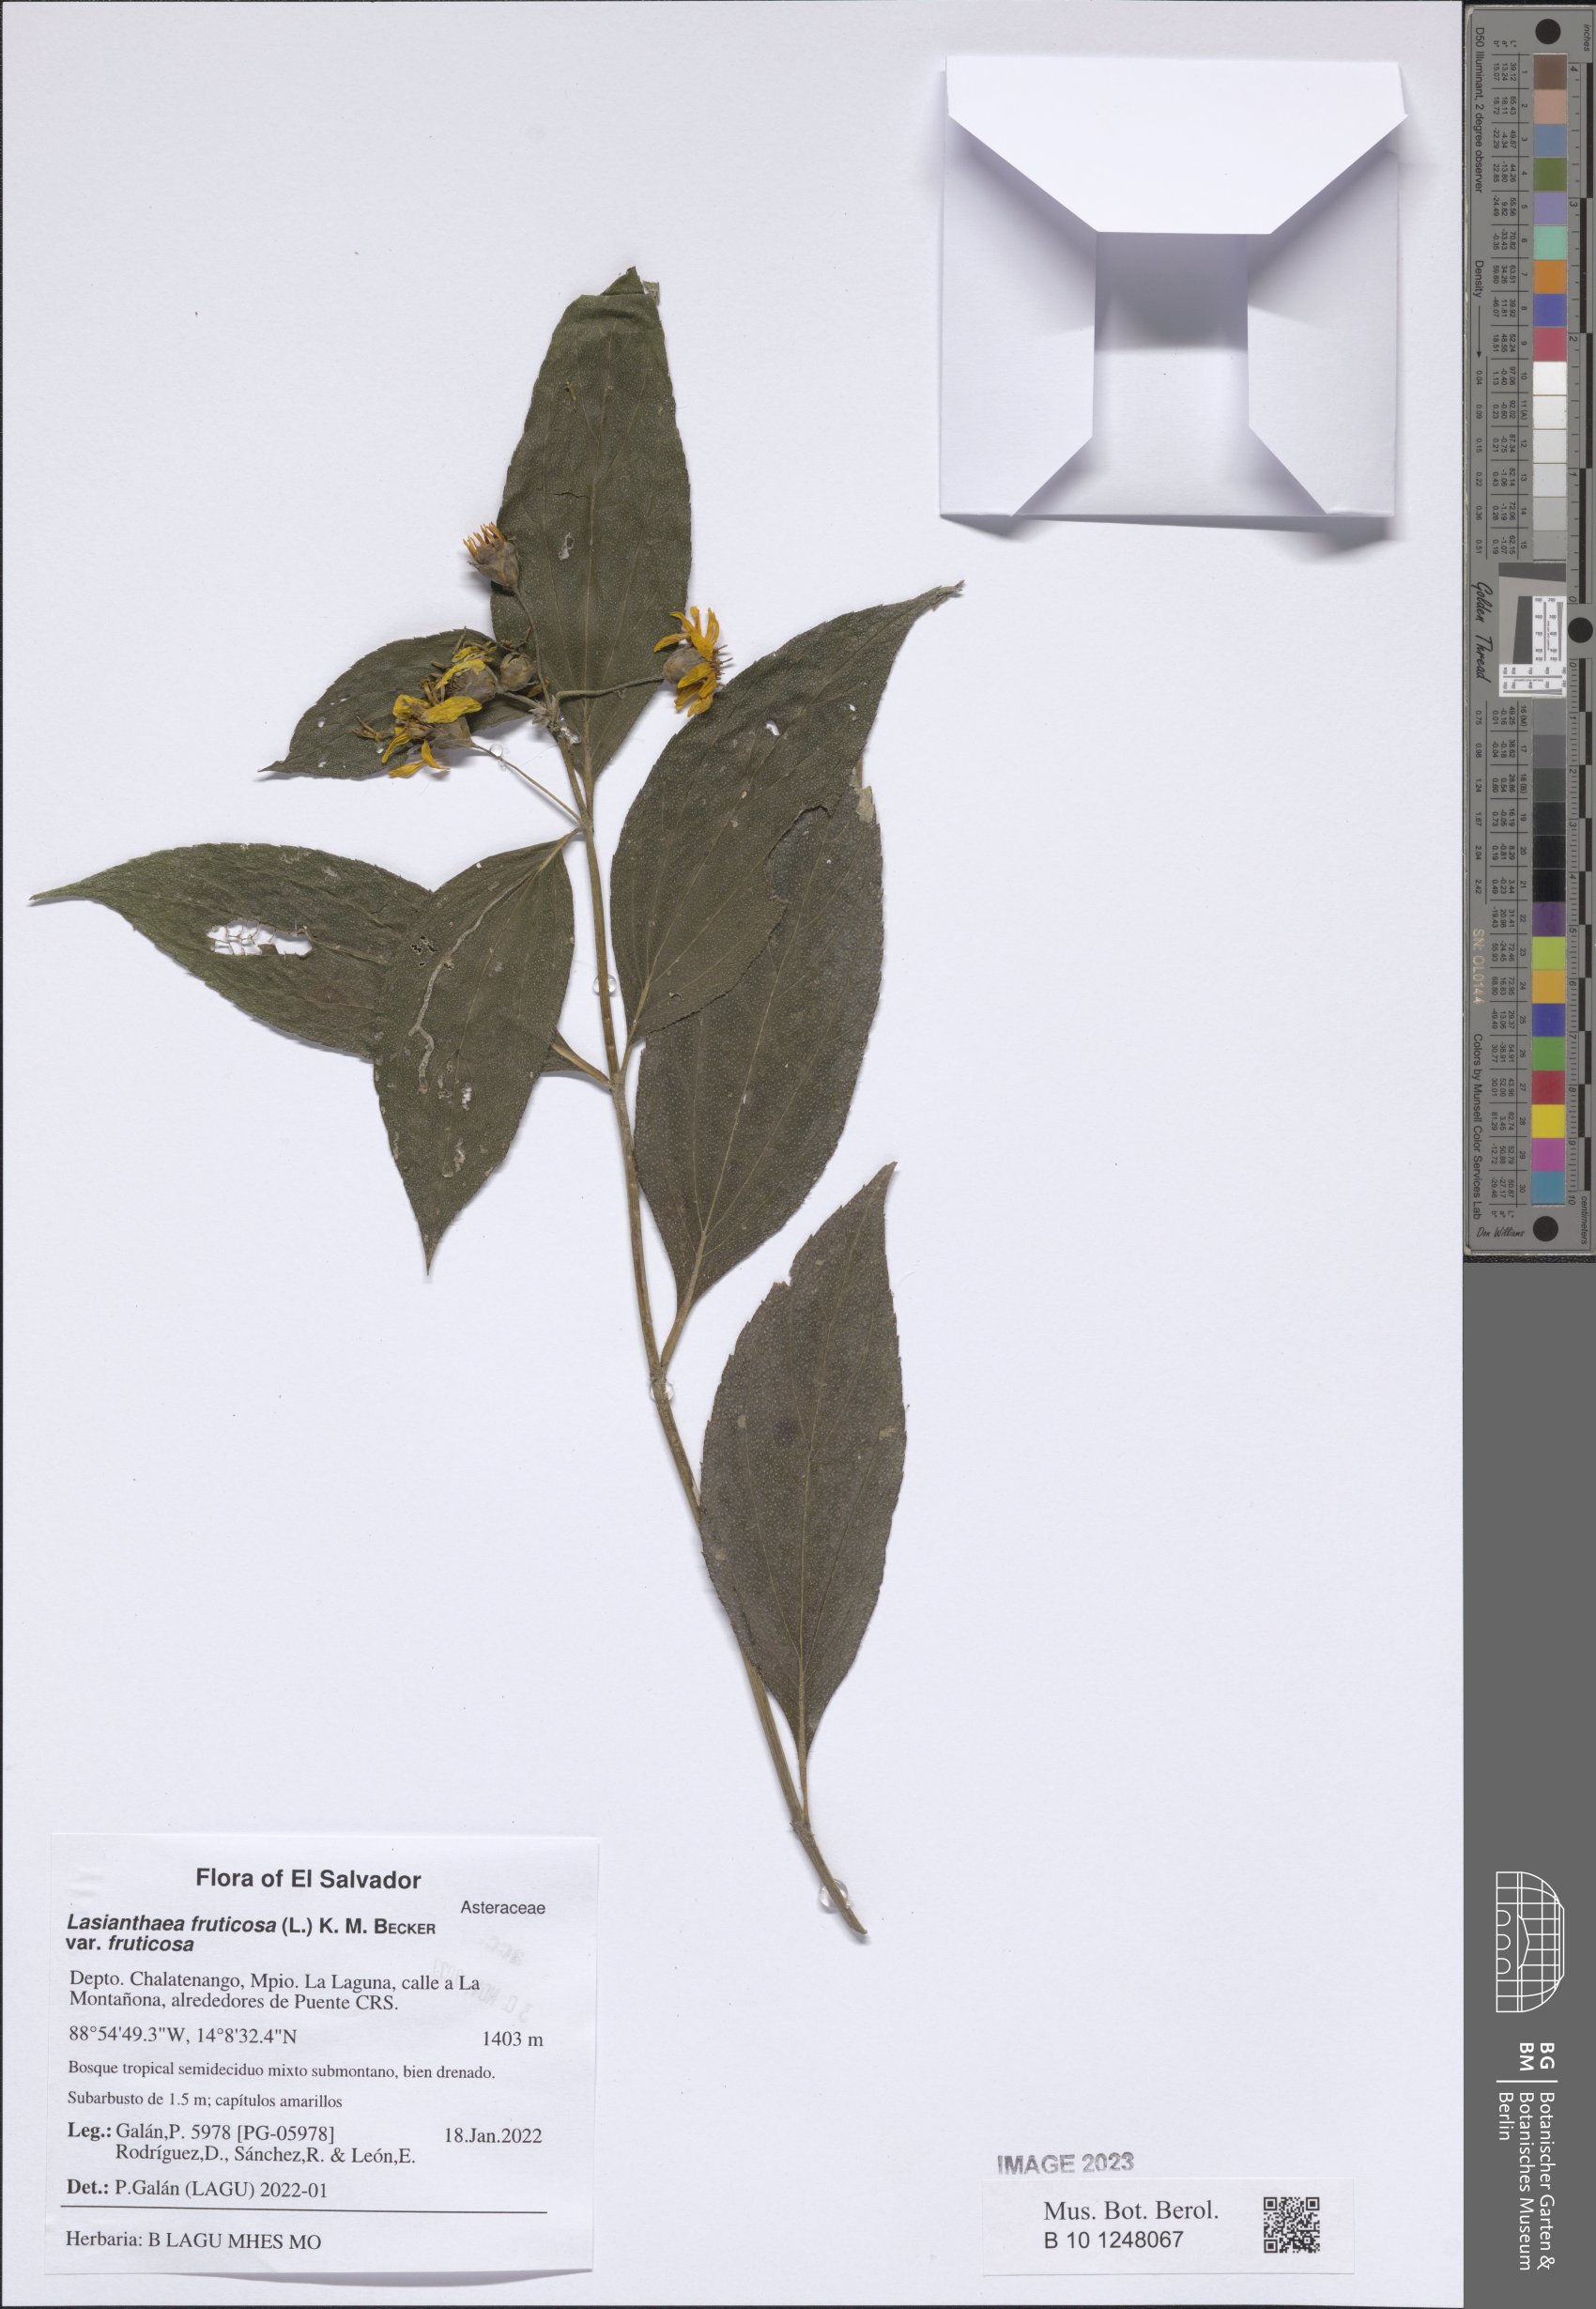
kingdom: Plantae
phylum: Tracheophyta
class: Magnoliopsida
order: Asterales
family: Asteraceae
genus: Lasianthaea
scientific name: Lasianthaea fruticosa
